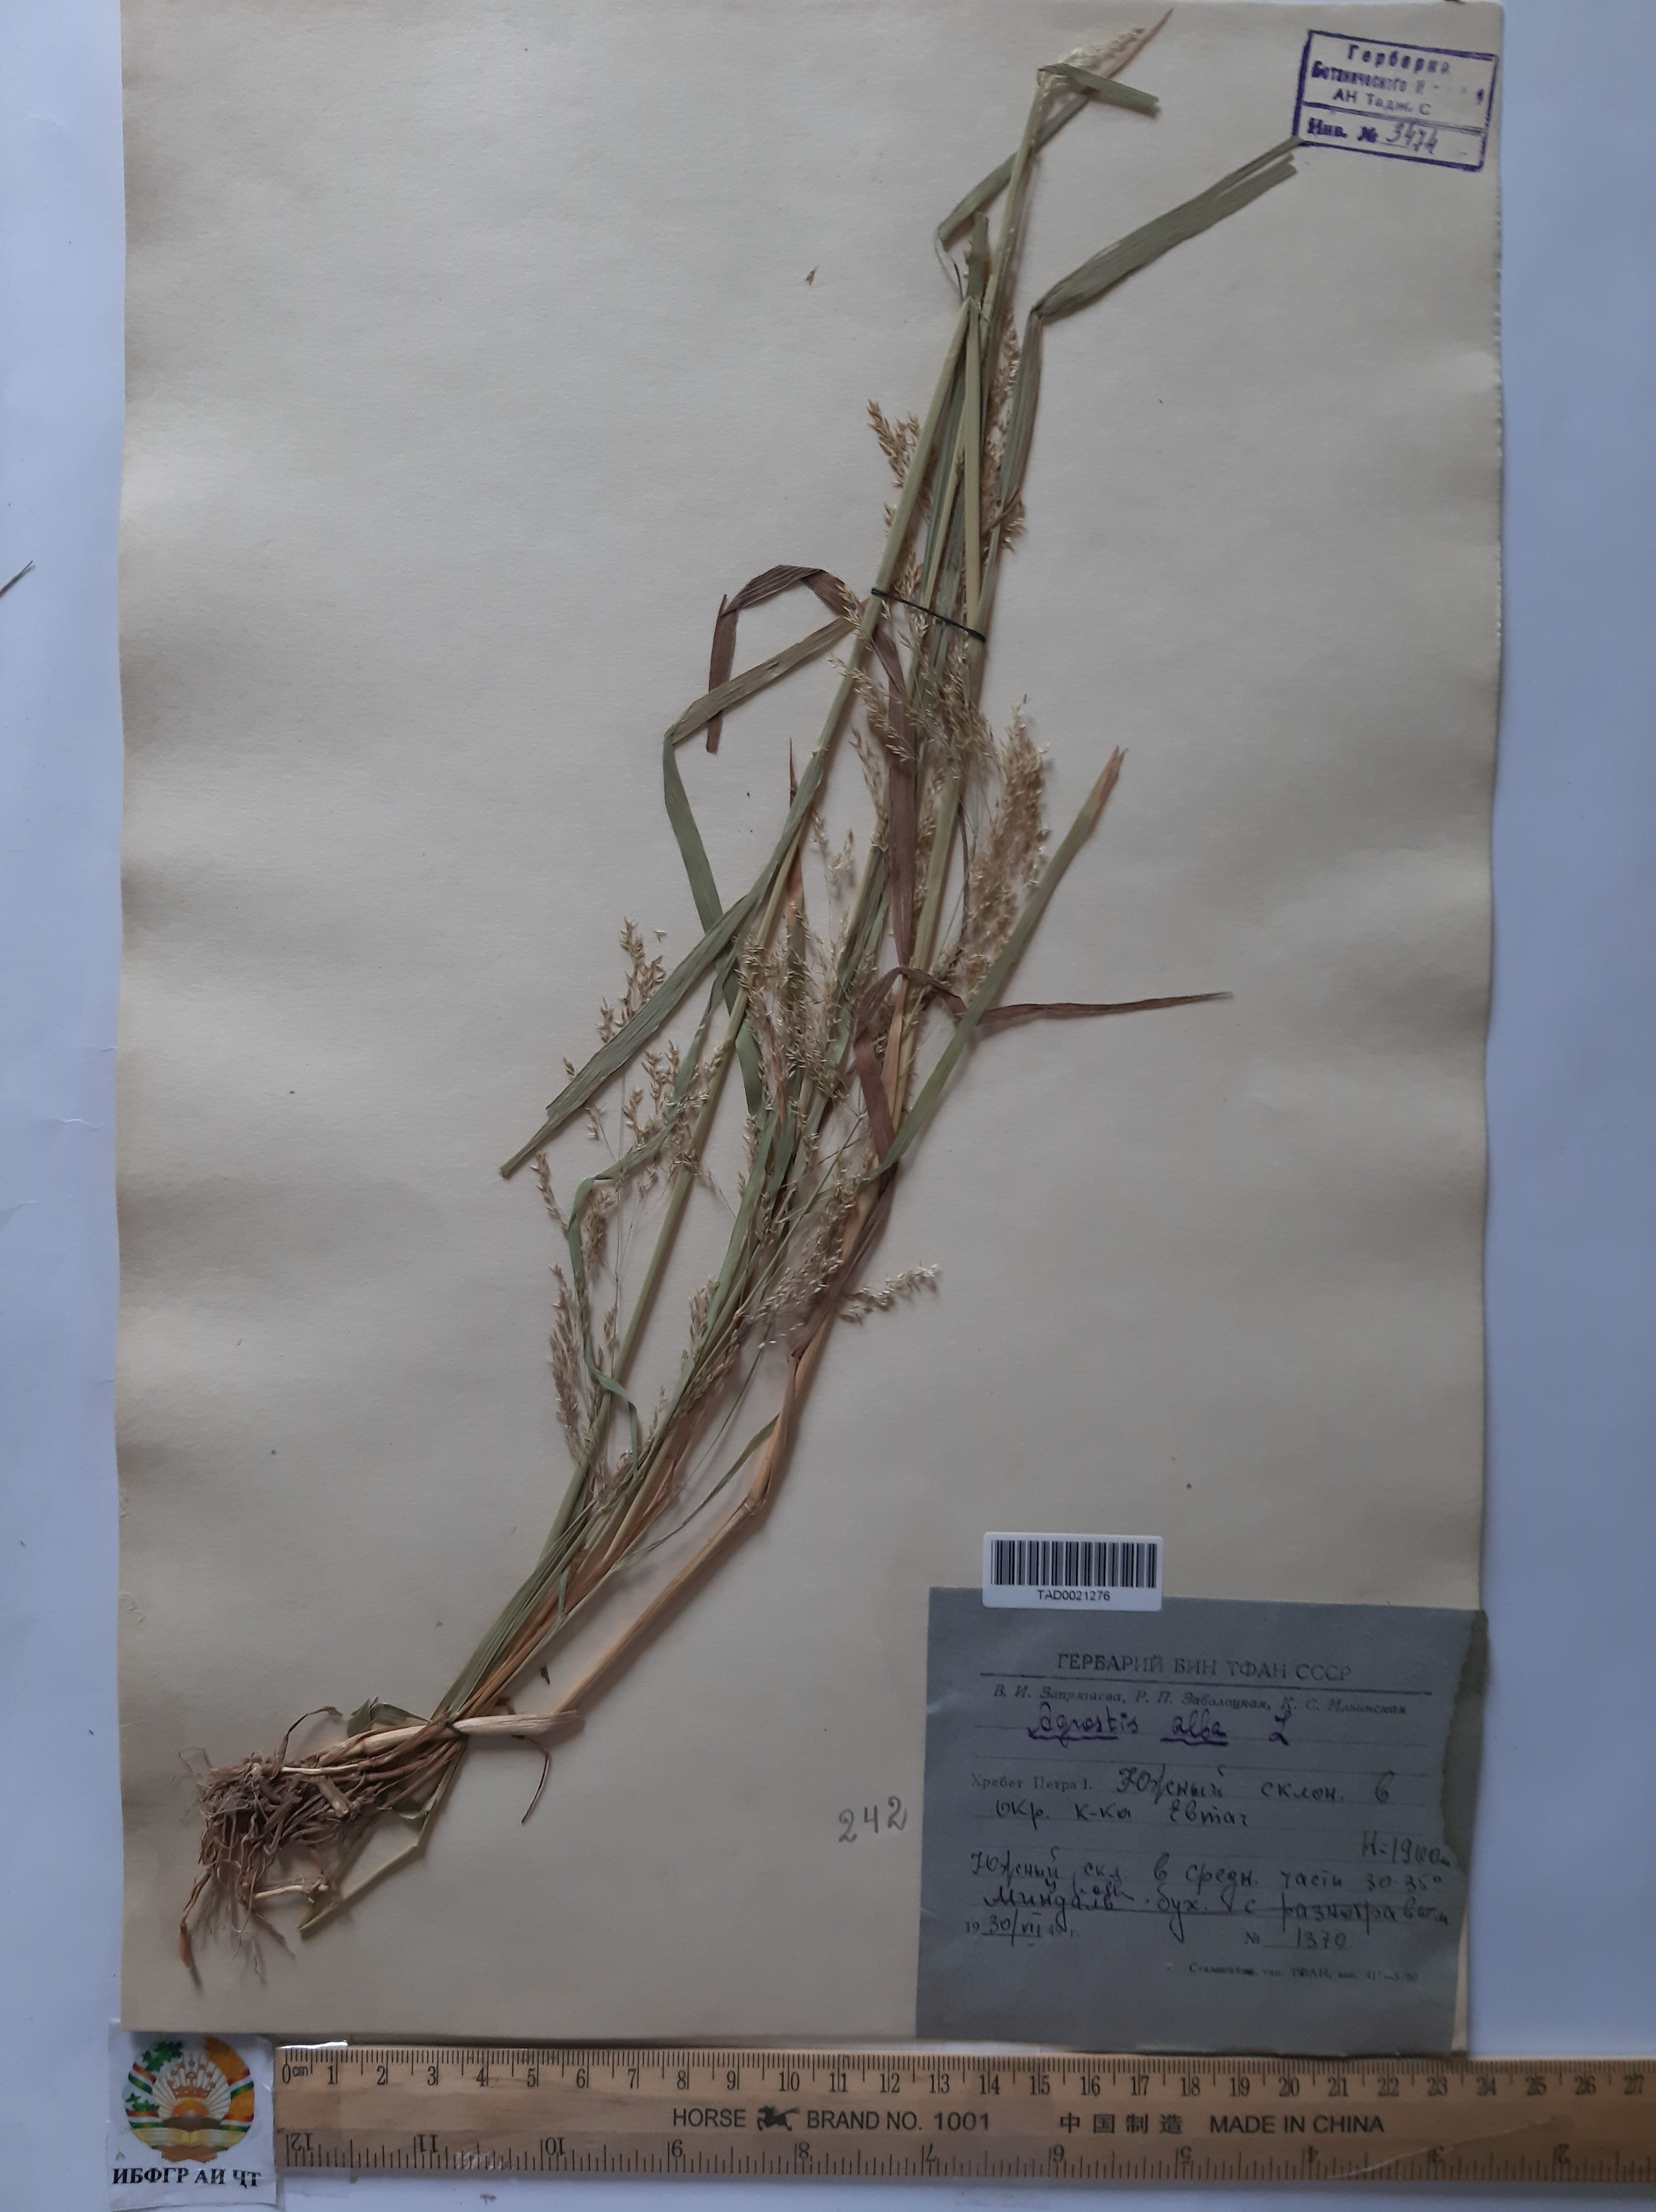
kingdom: Plantae
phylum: Tracheophyta
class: Liliopsida
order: Poales
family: Poaceae
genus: Poa
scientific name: Poa nemoralis
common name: Wood bluegrass
